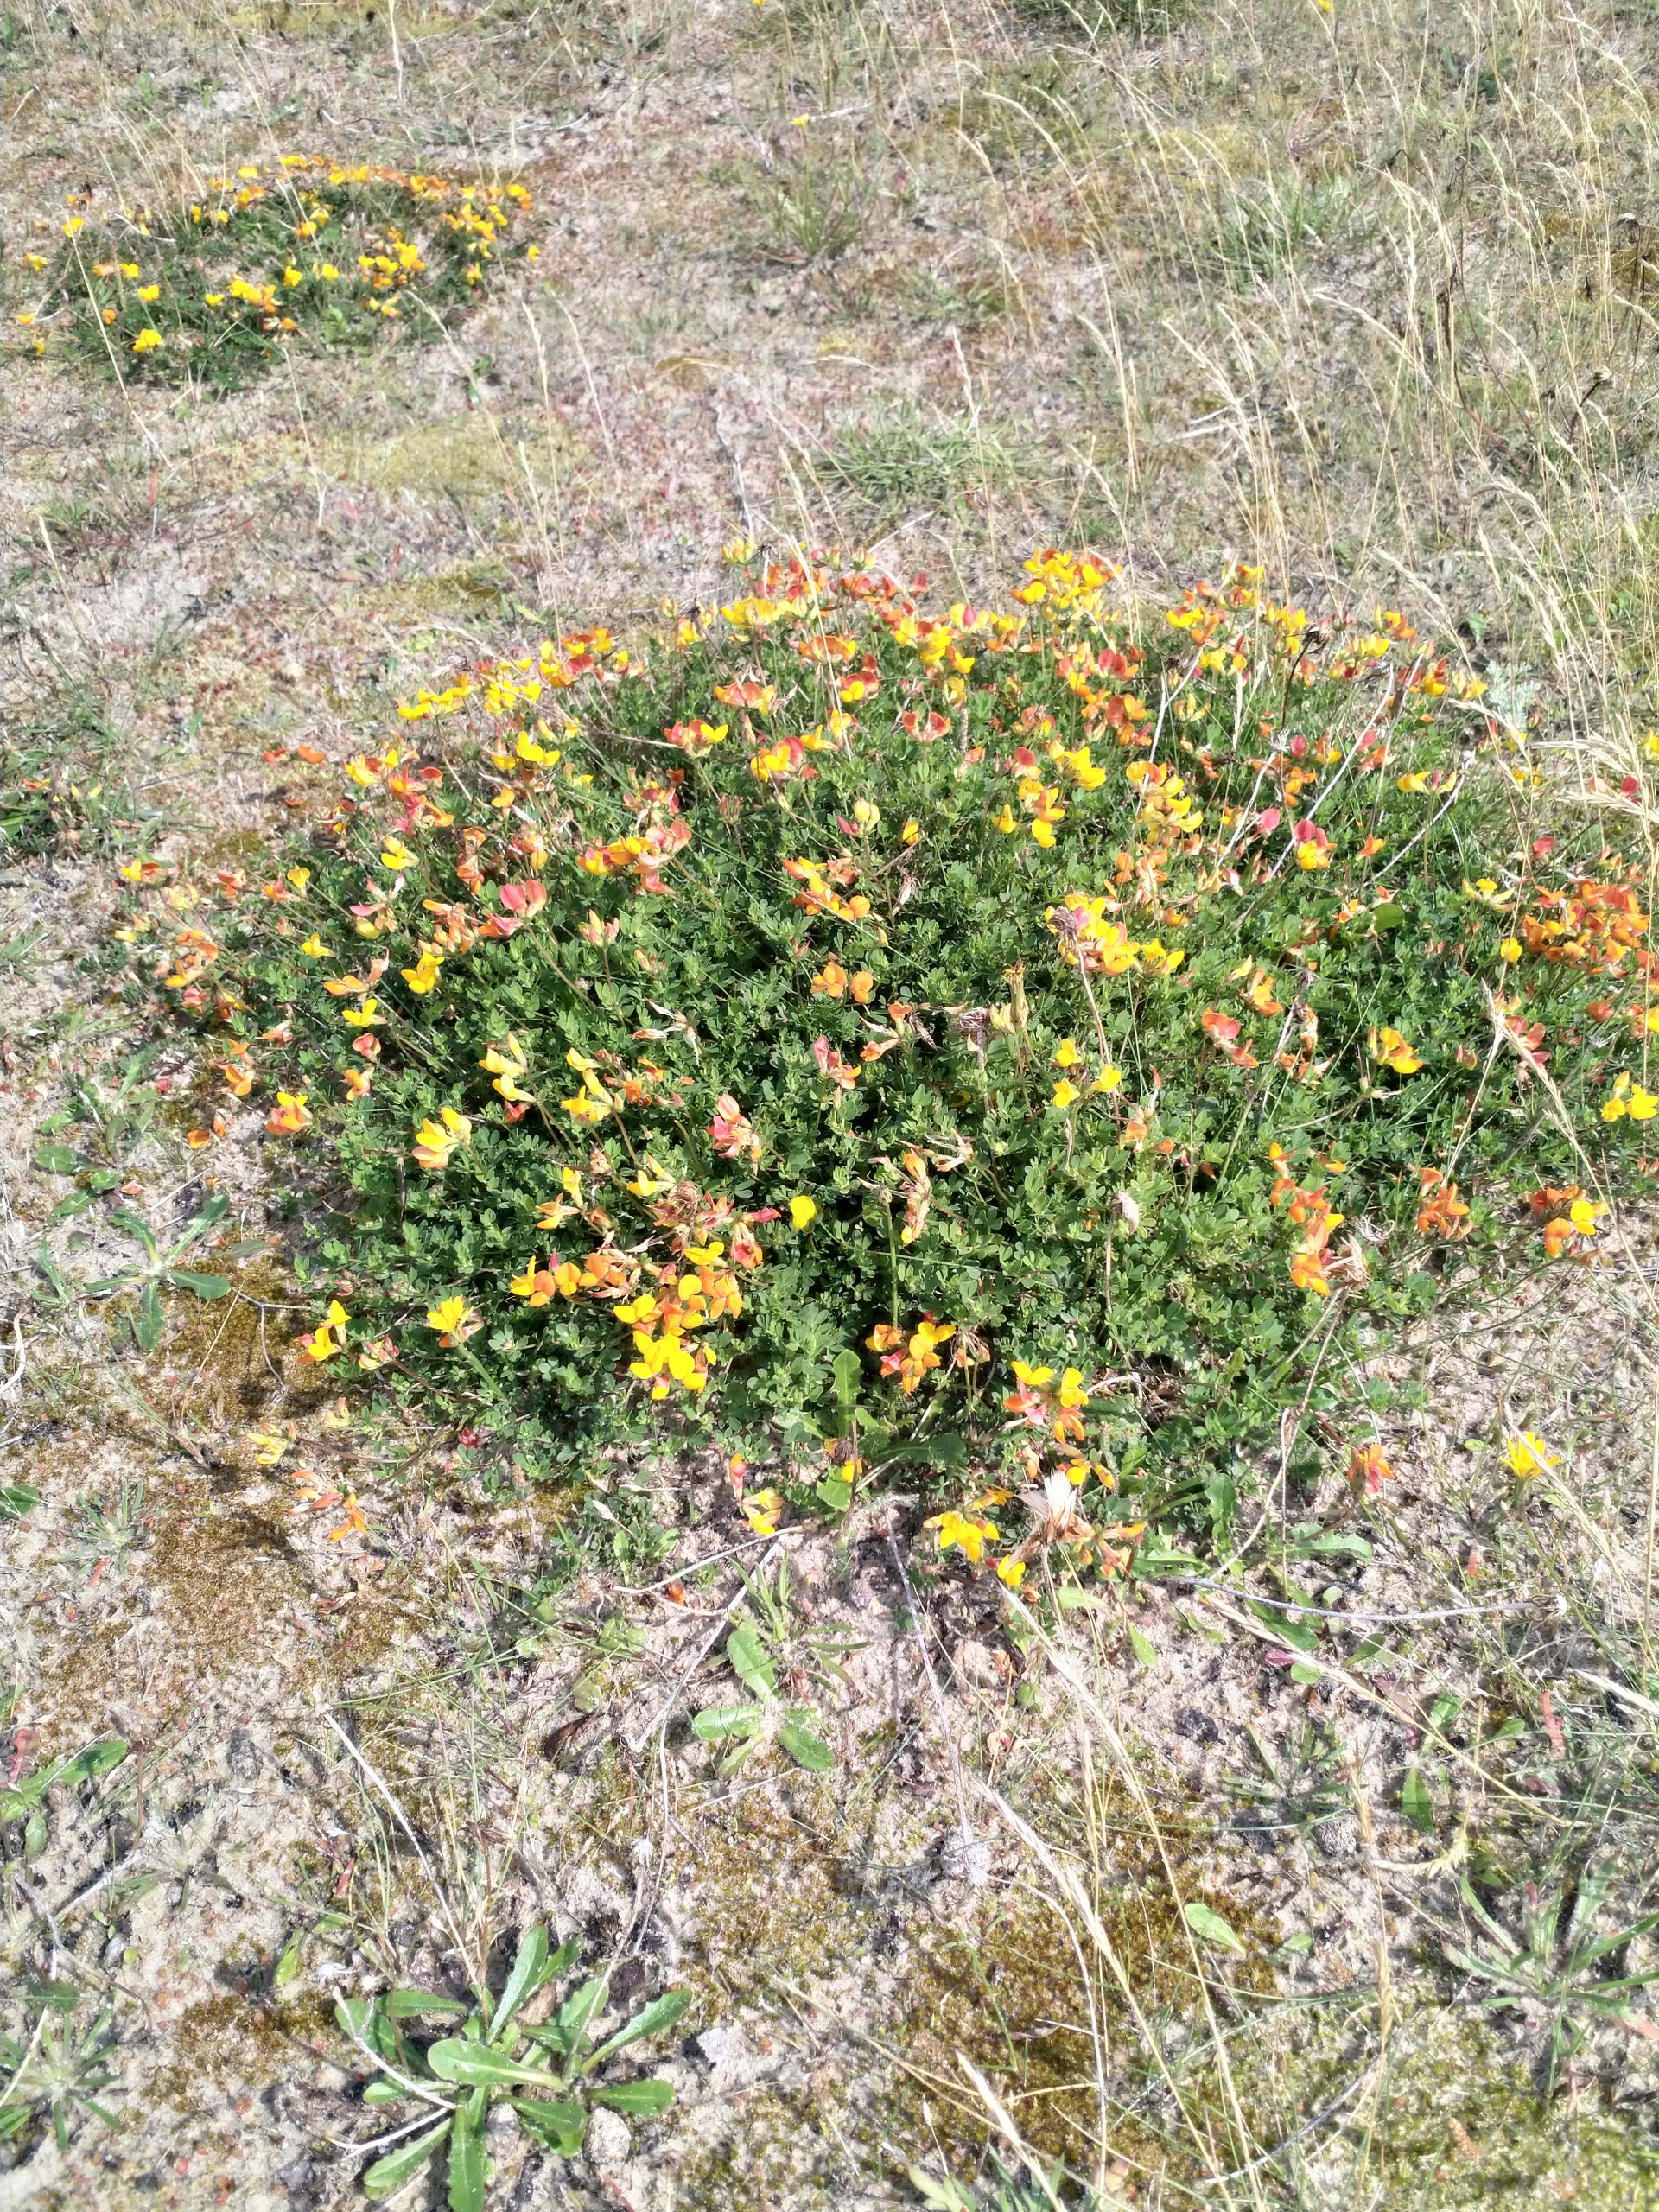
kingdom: Plantae
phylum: Tracheophyta
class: Magnoliopsida
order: Fabales
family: Fabaceae
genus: Lotus
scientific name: Lotus corniculatus
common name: Almindelig kællingetand
